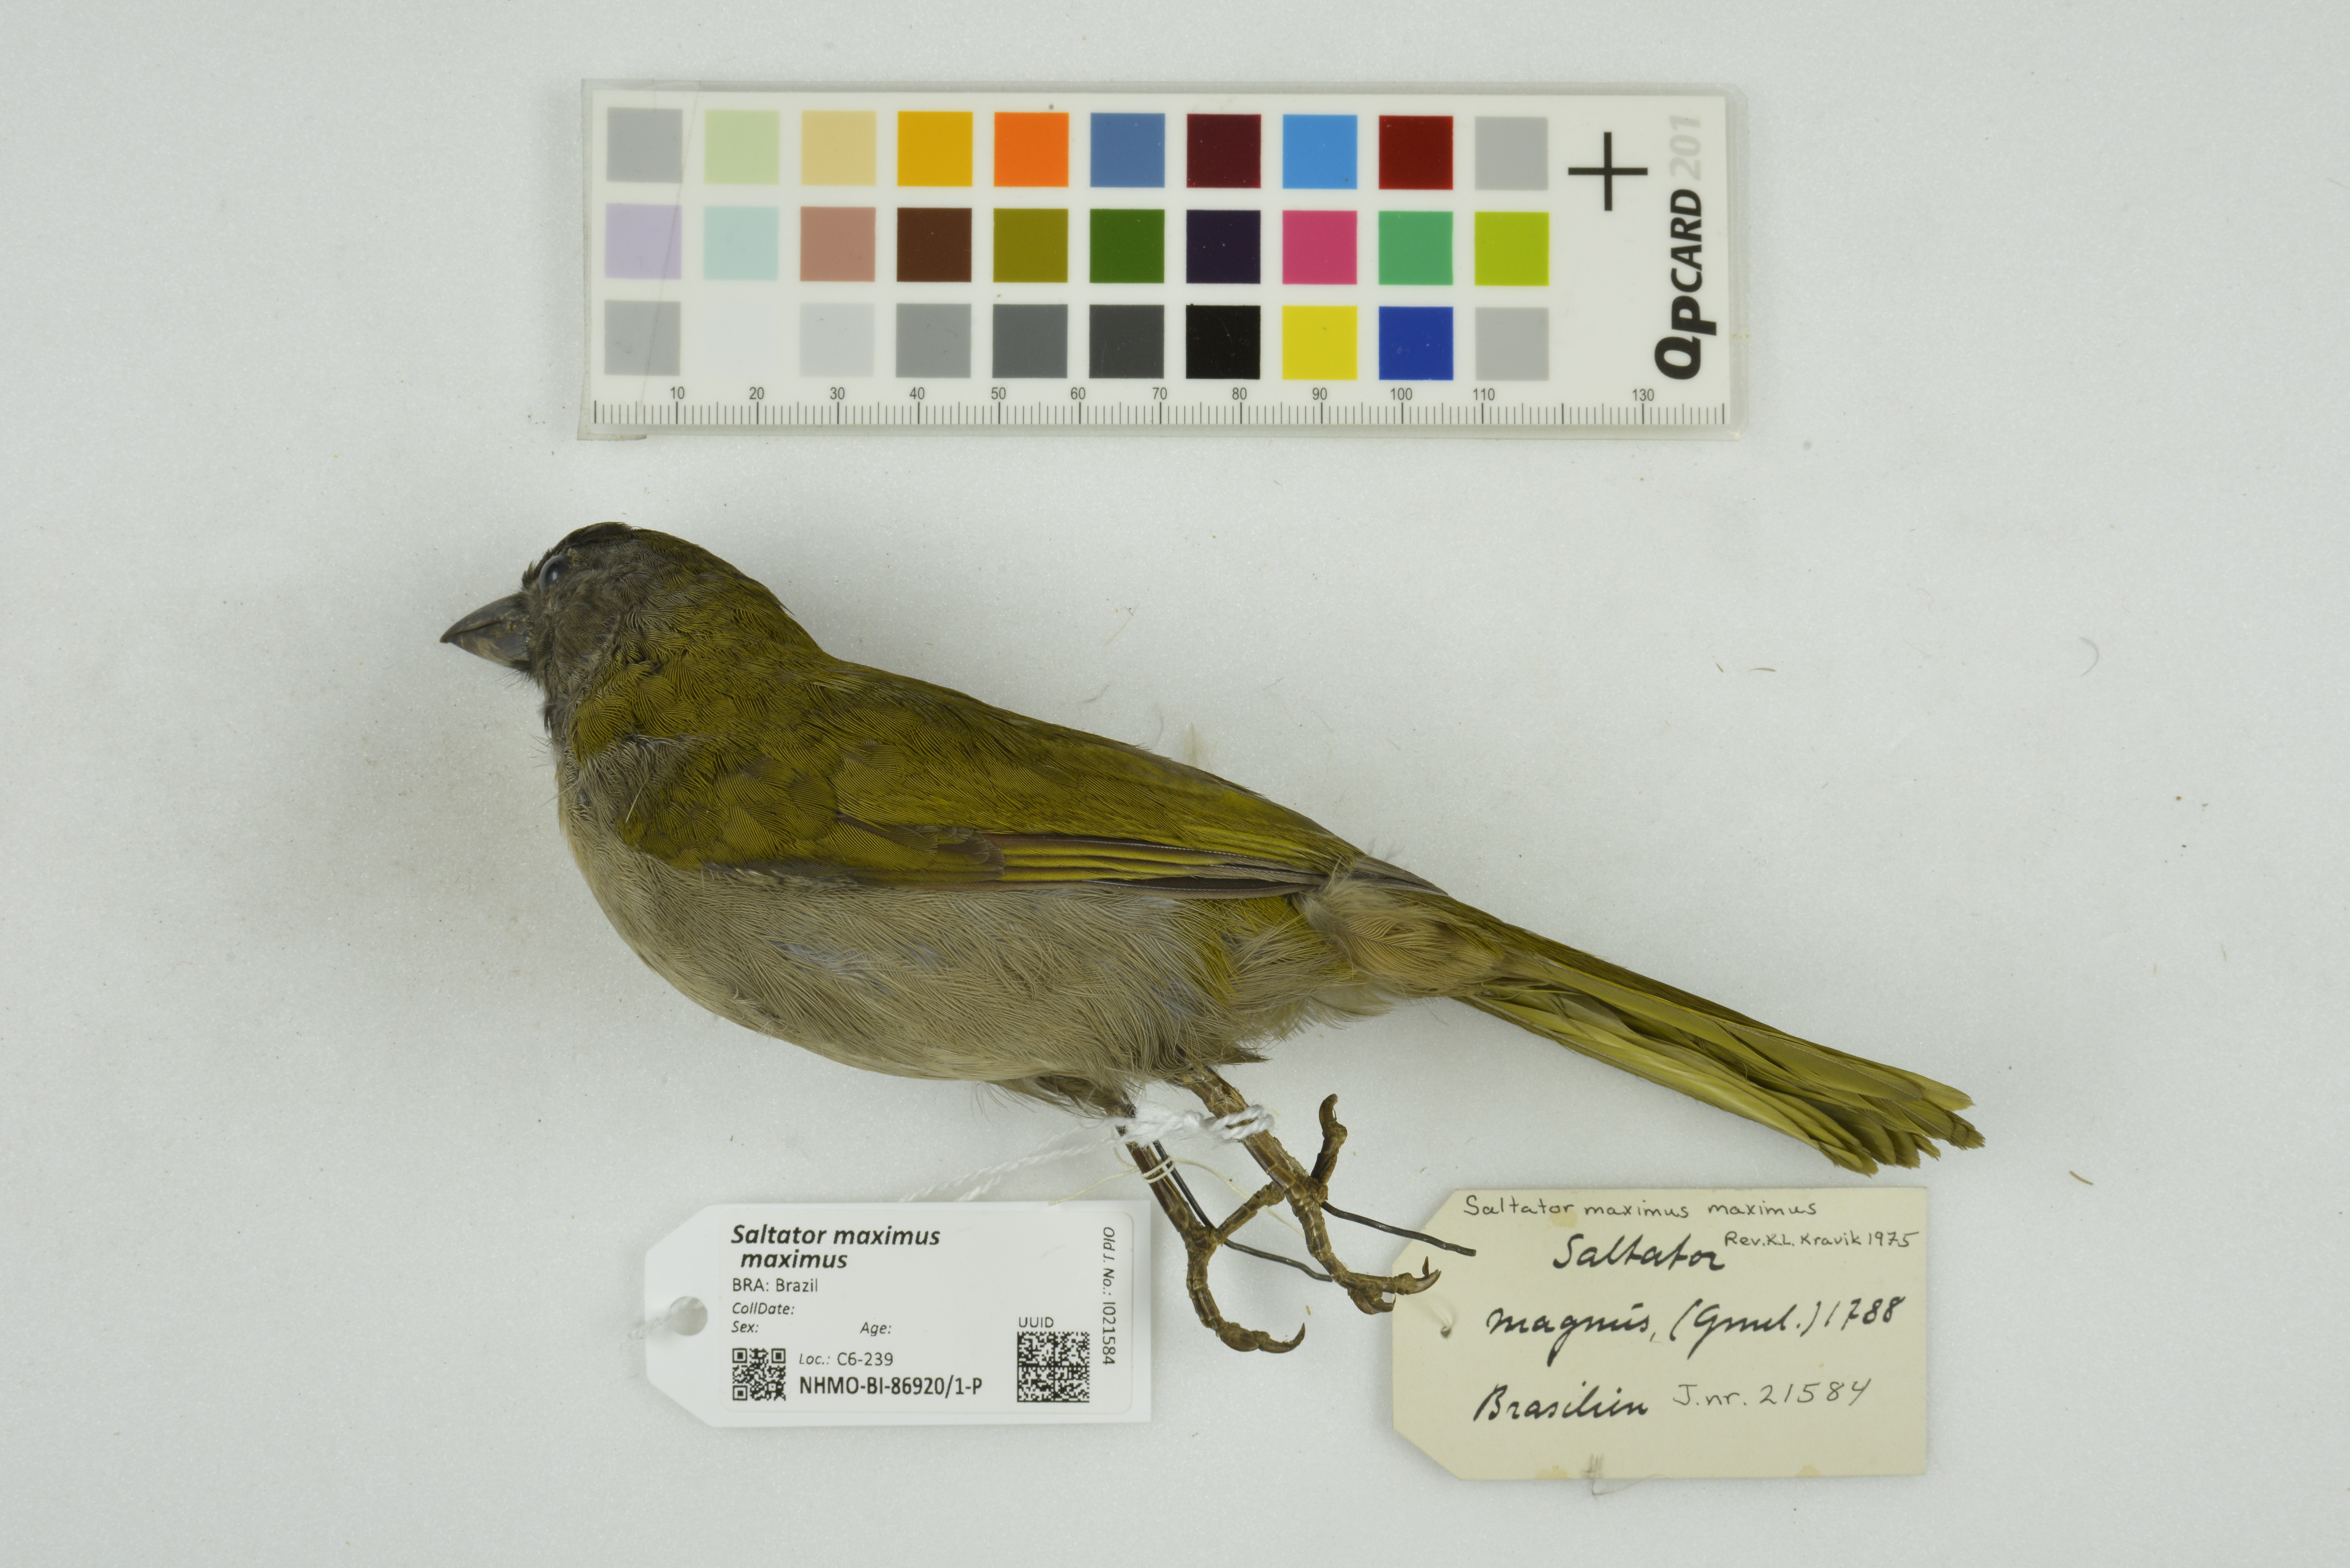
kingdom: Animalia
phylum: Chordata
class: Aves
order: Passeriformes
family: Thraupidae
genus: Saltator
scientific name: Saltator maximus
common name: Buff-throated saltator
